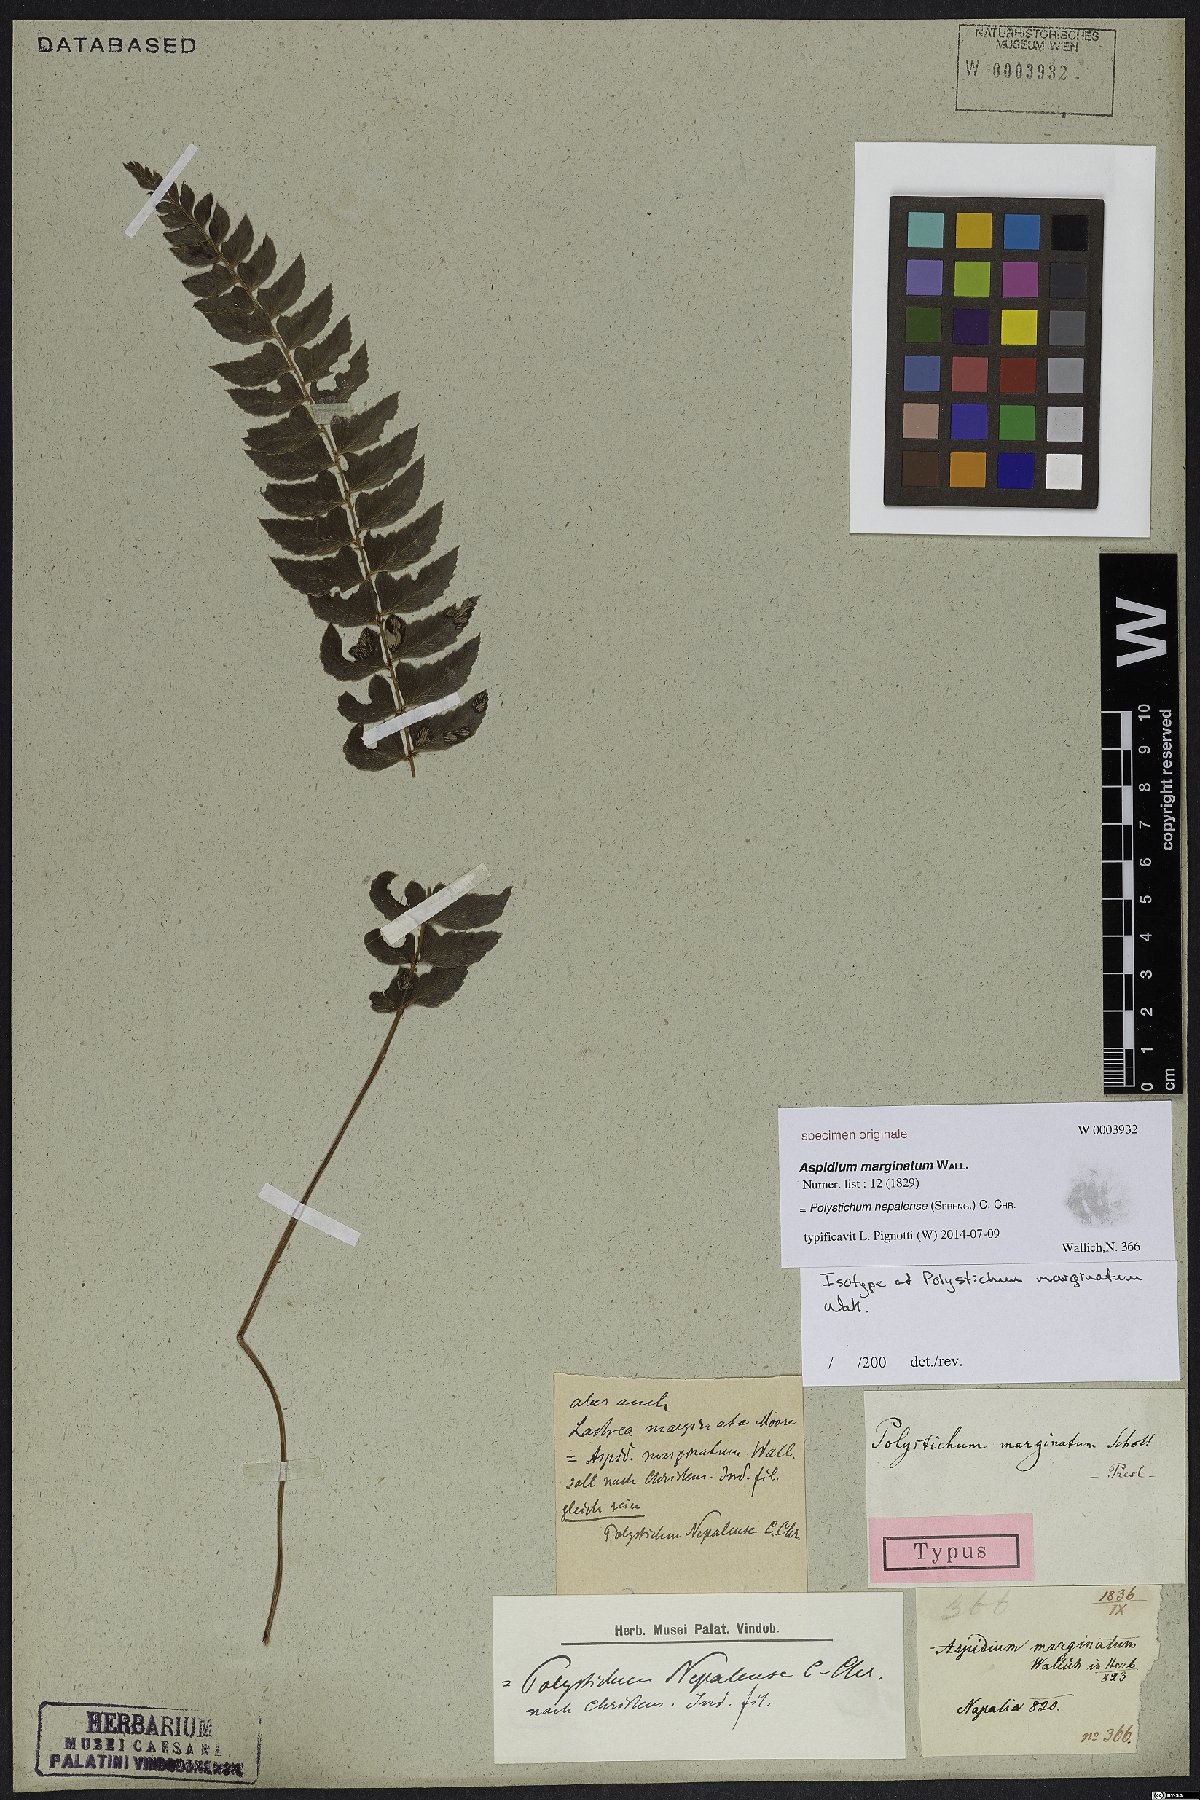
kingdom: Plantae
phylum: Tracheophyta
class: Polypodiopsida
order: Polypodiales
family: Dryopteridaceae
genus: Polystichum
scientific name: Polystichum nepalense
